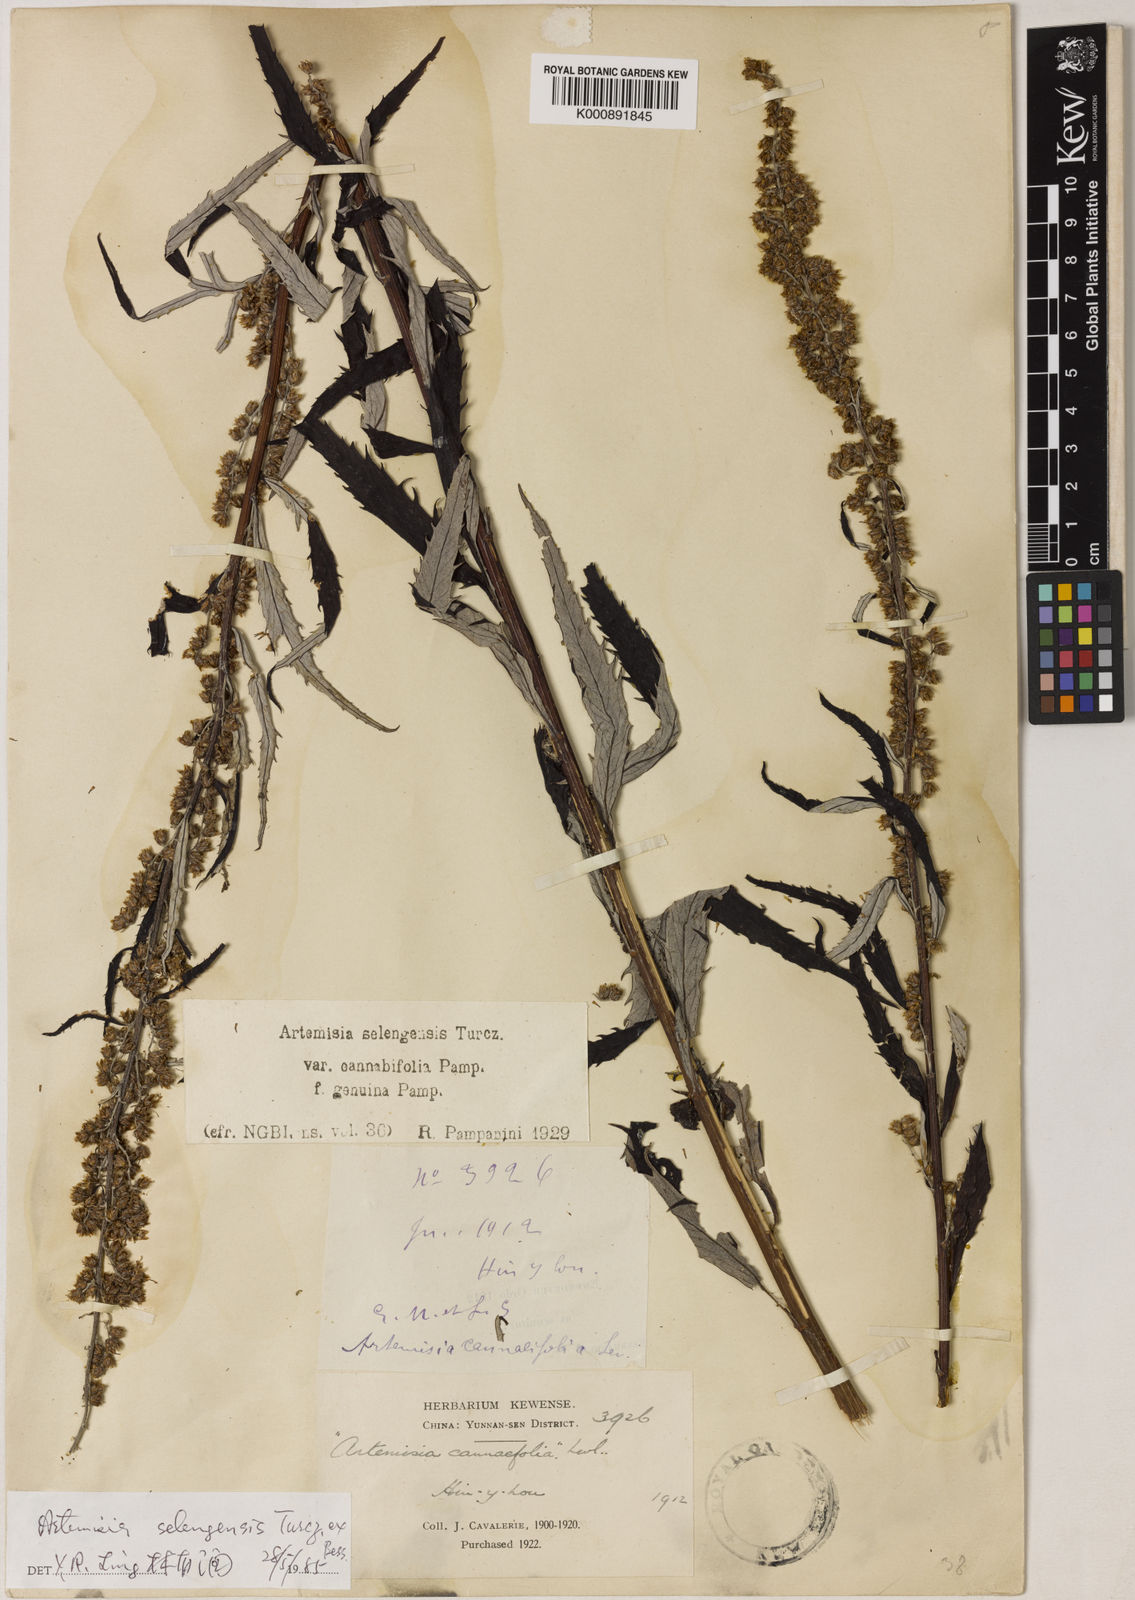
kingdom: Plantae
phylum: Tracheophyta
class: Magnoliopsida
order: Asterales
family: Asteraceae
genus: Artemisia
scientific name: Artemisia selengensis
